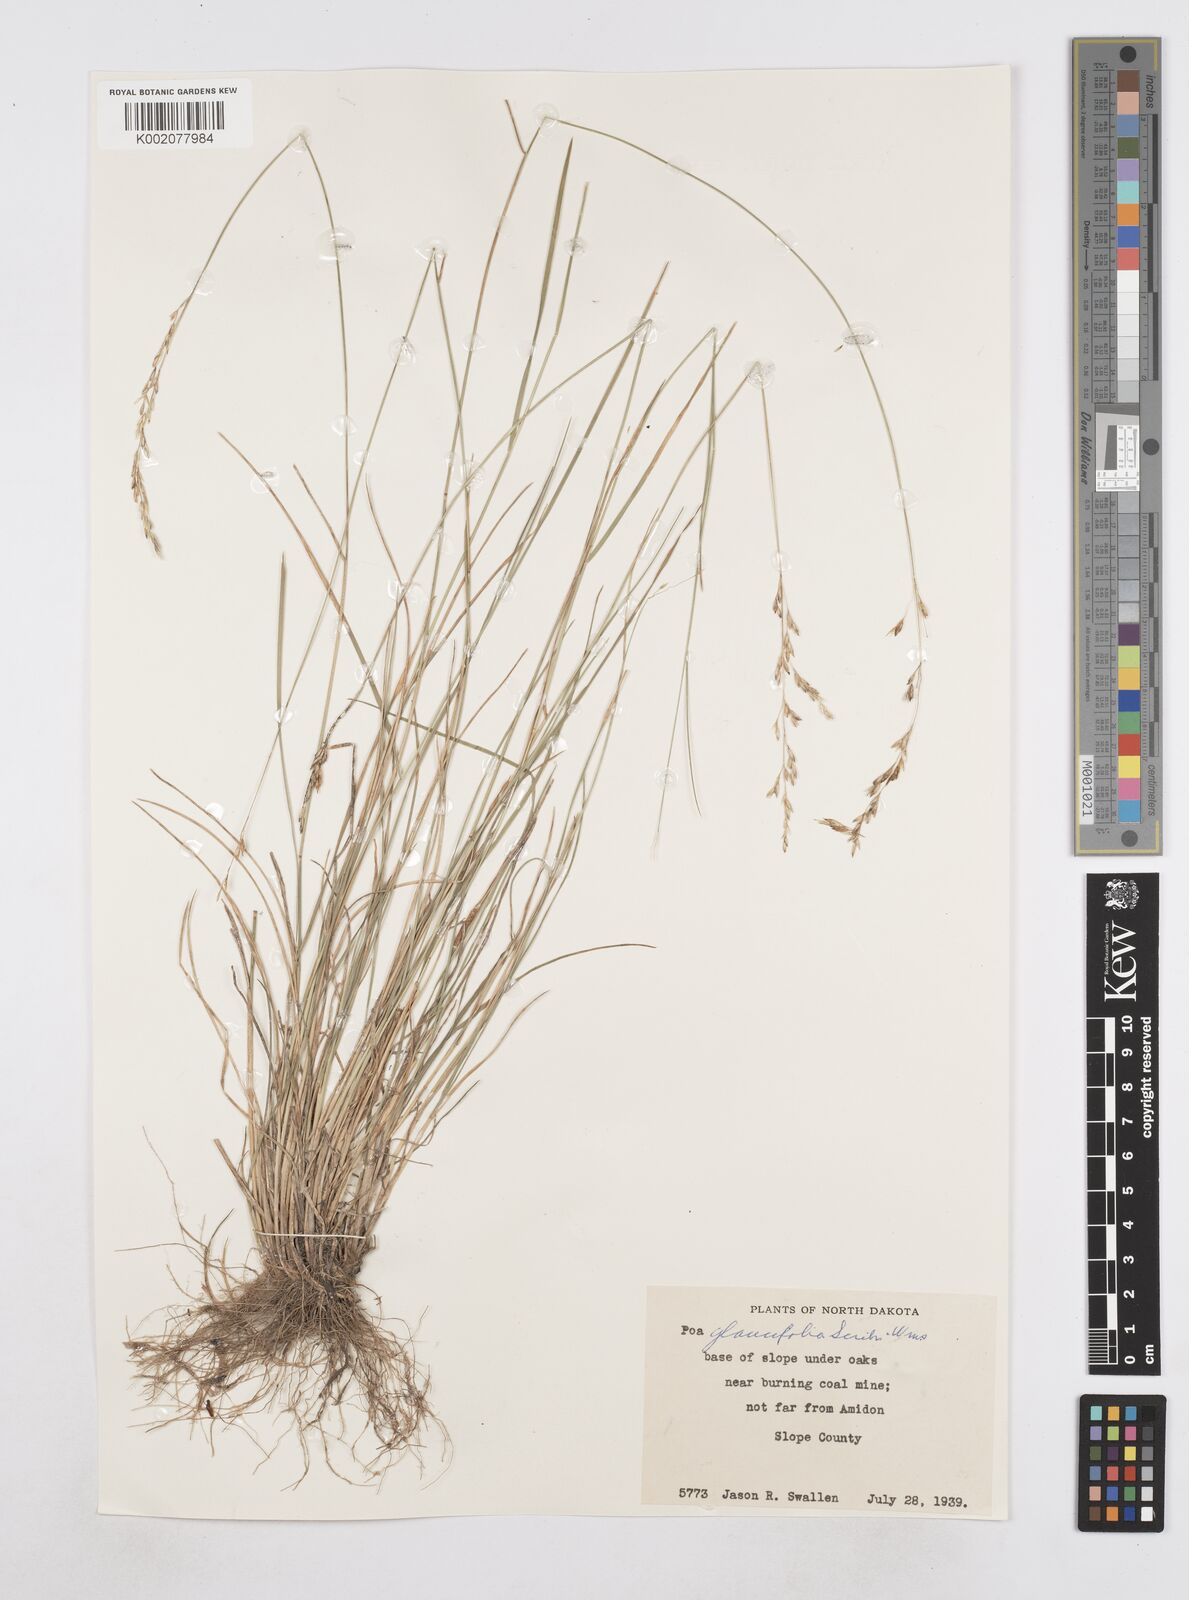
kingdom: Plantae
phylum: Tracheophyta
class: Liliopsida
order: Poales
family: Poaceae
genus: Poa
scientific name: Poa arida
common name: Plains bluegrass
